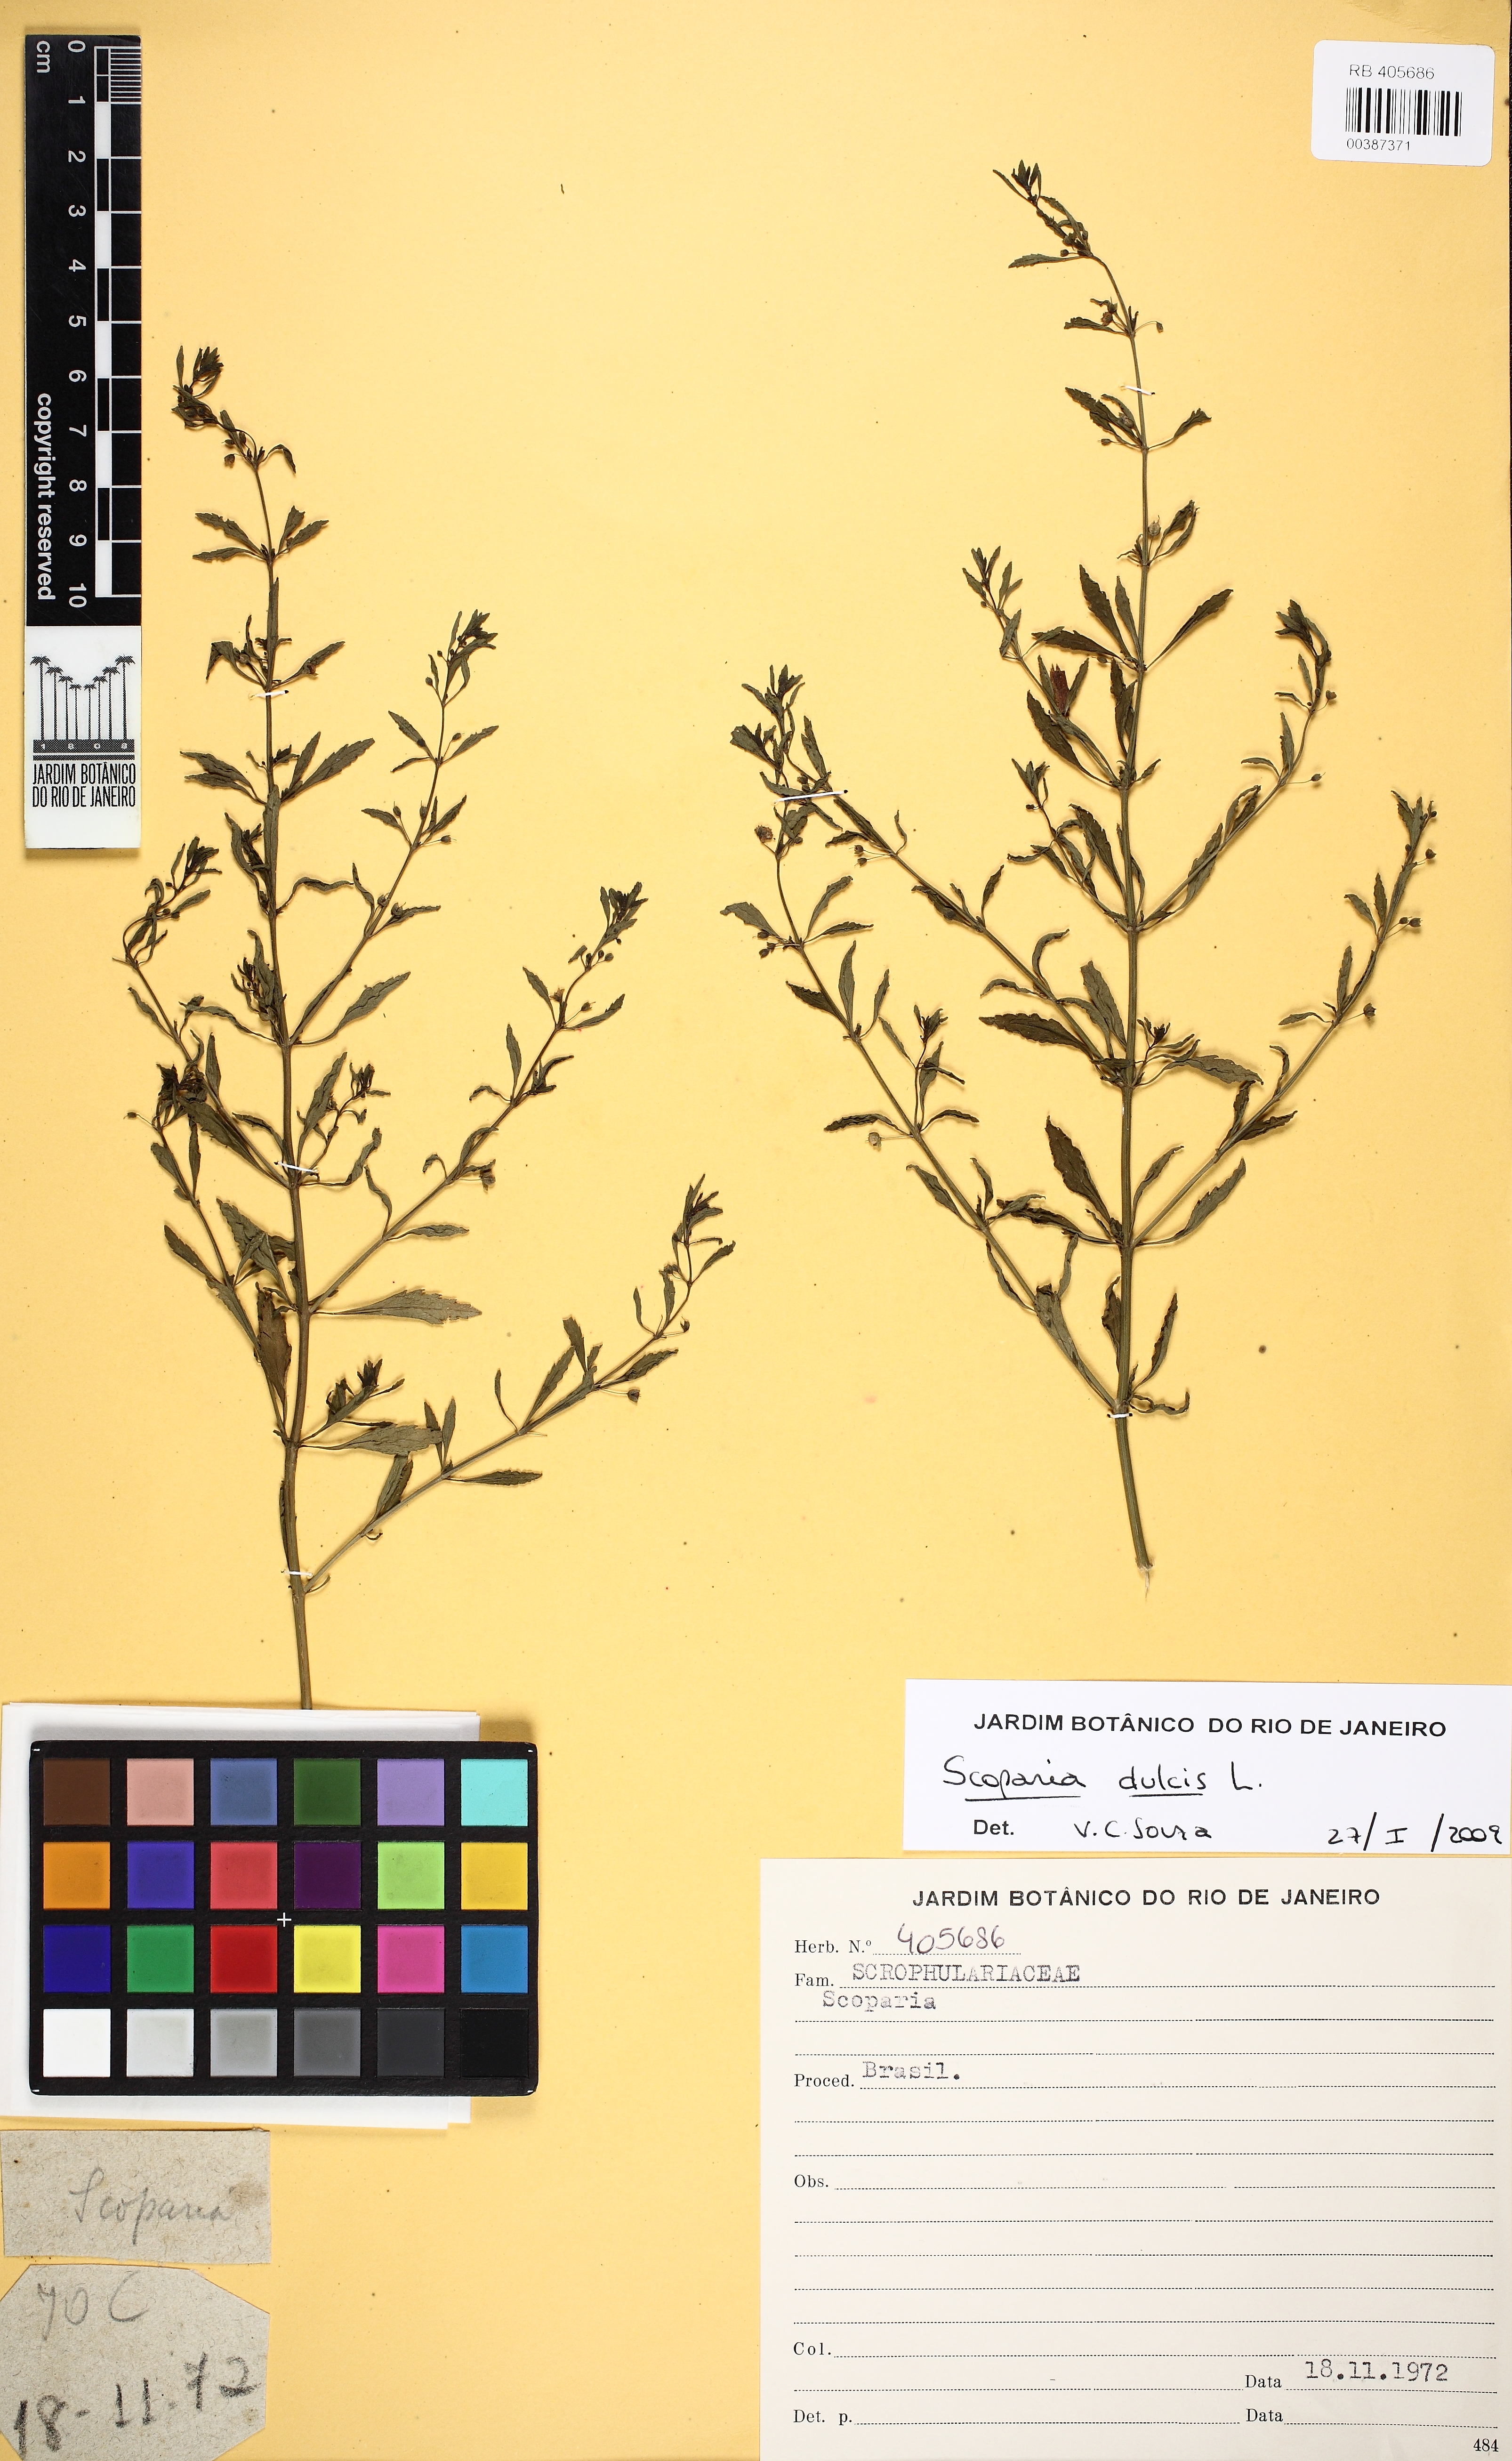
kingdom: Plantae
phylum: Tracheophyta
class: Magnoliopsida
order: Lamiales
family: Plantaginaceae
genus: Scoparia
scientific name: Scoparia dulcis
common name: Scoparia-weed
